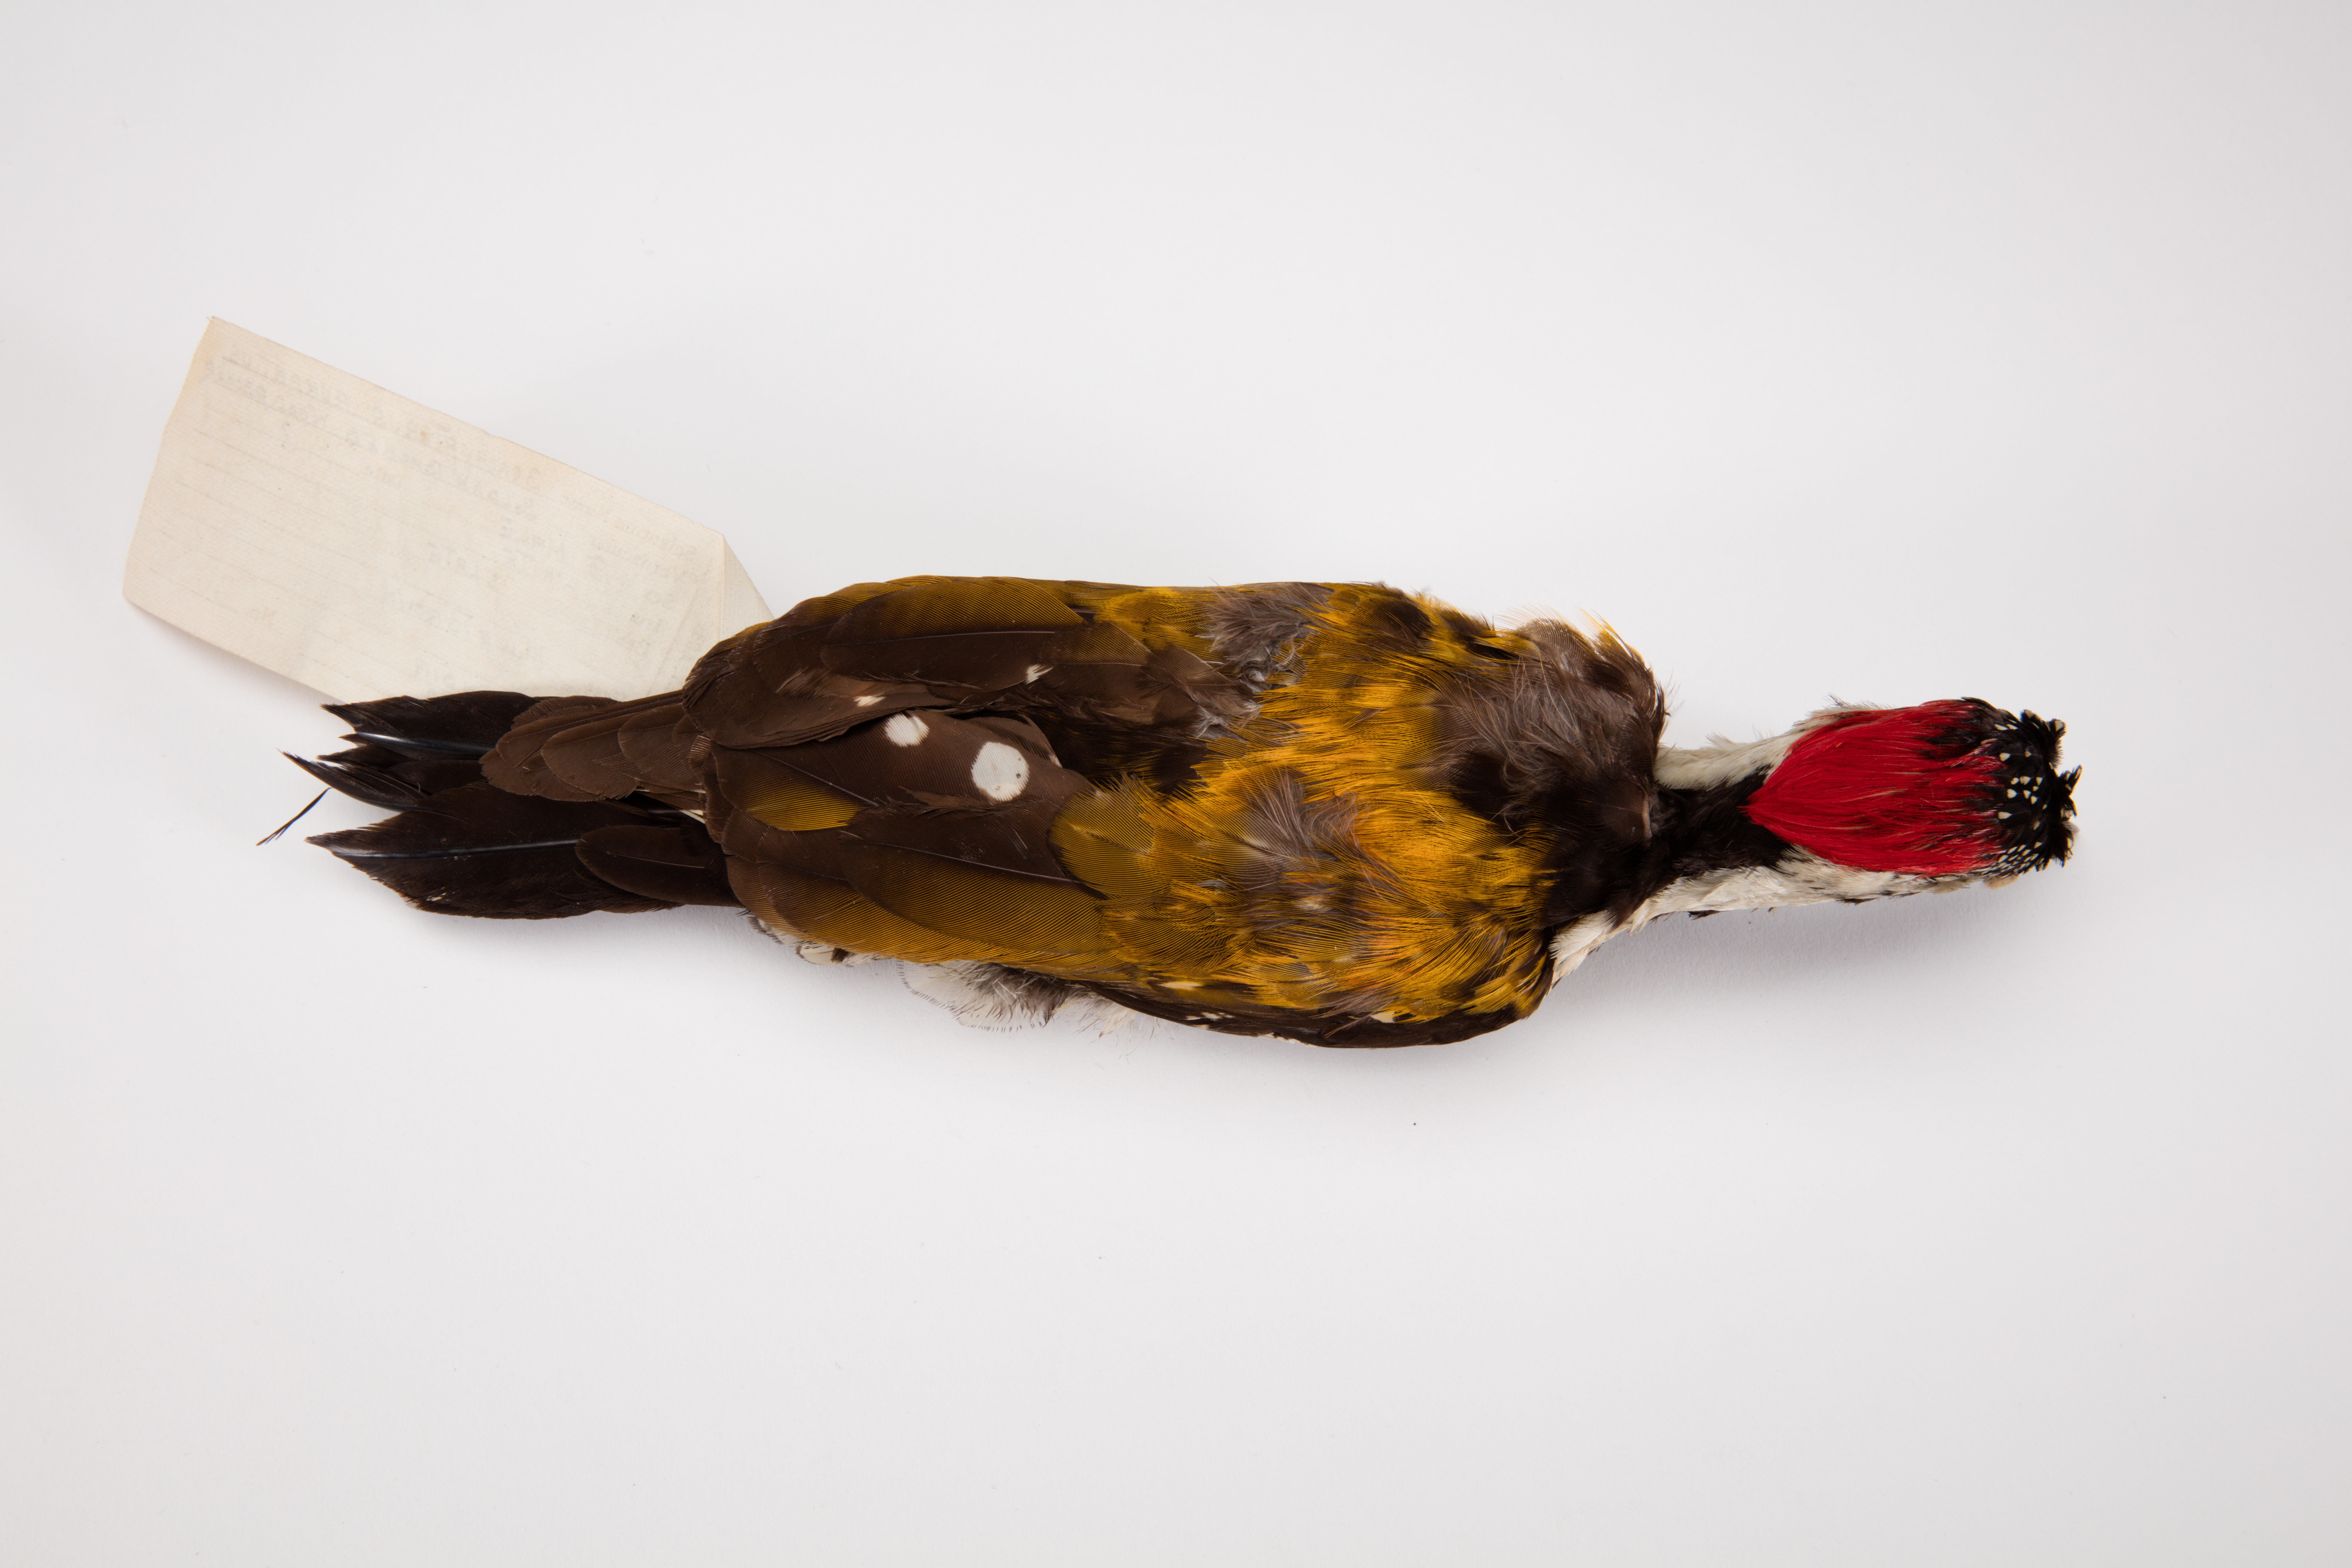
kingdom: Animalia
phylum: Chordata
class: Aves
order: Piciformes
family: Picidae
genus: Dinopium
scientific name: Dinopium javanense
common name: Common flameback
